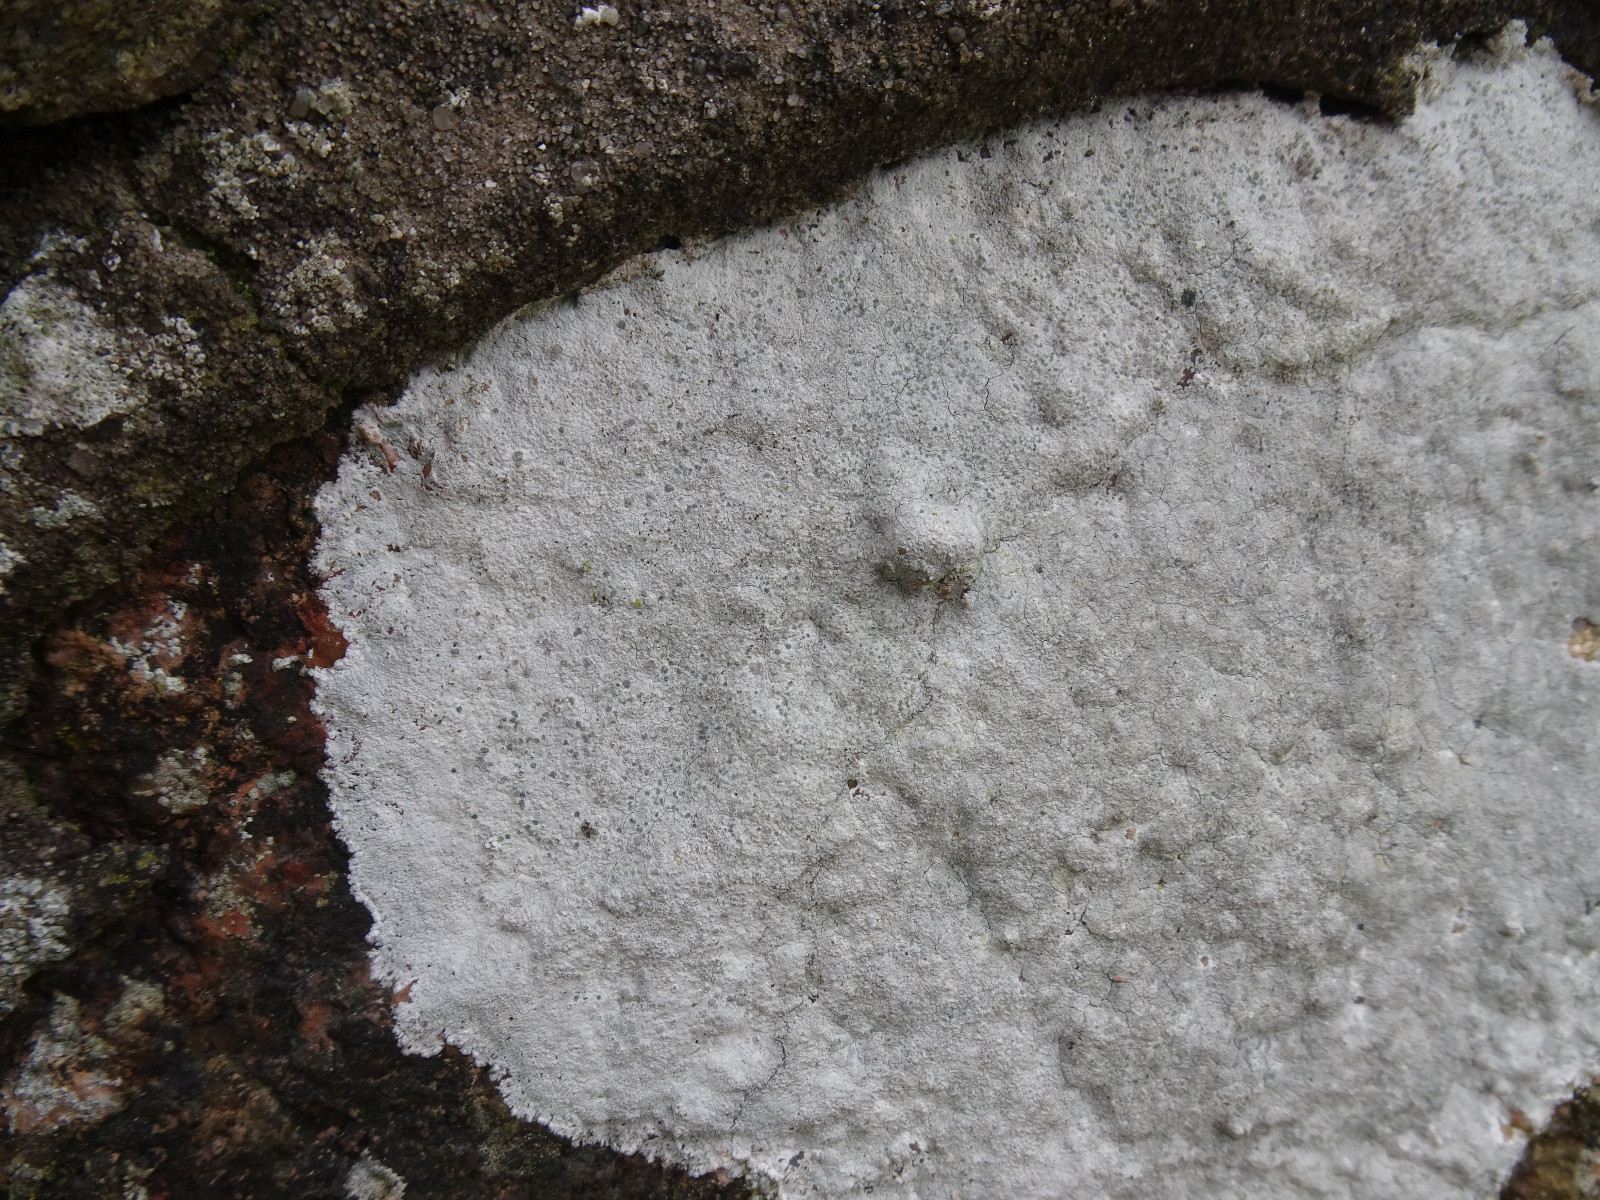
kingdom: Fungi
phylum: Ascomycota
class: Lecanoromycetes
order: Lecanorales
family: Lecanoraceae
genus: Glaucomaria
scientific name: Glaucomaria rupicola
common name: stengærde-kantskivelav
